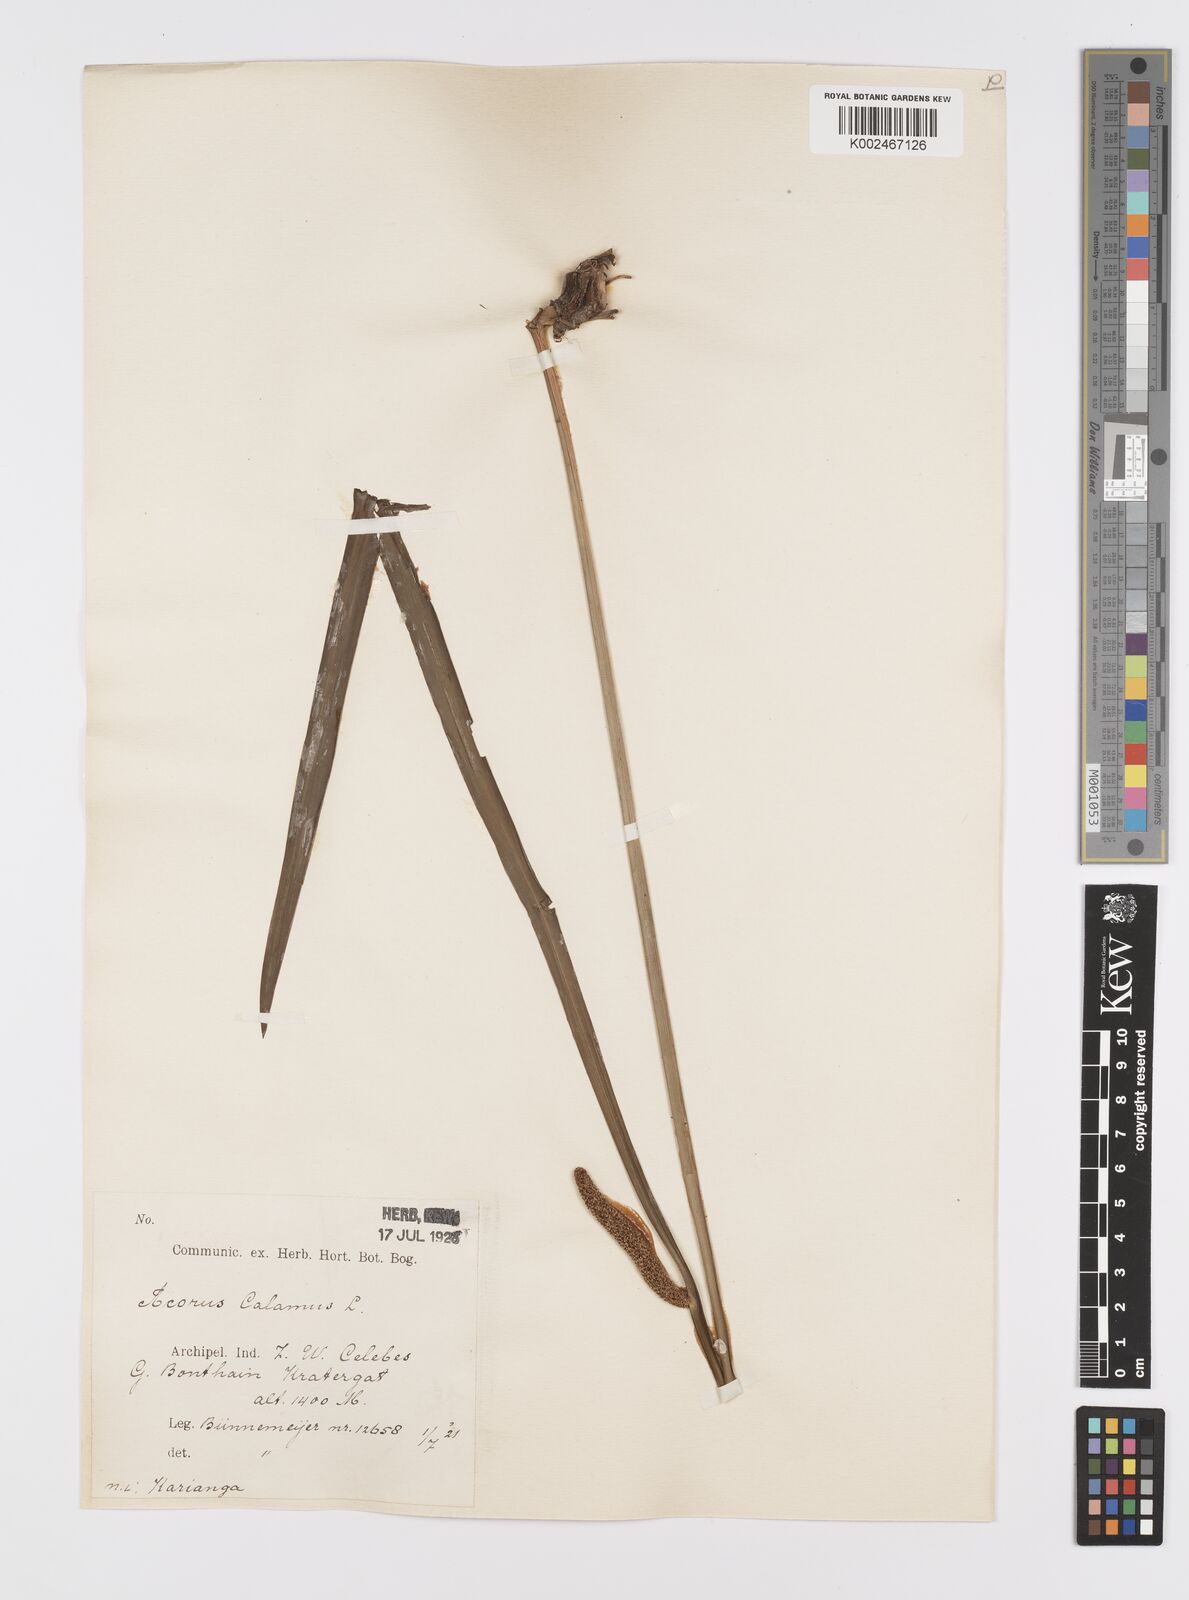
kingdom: Plantae
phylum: Tracheophyta
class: Liliopsida
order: Acorales
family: Acoraceae
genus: Acorus
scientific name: Acorus calamus
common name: Sweet-flag
